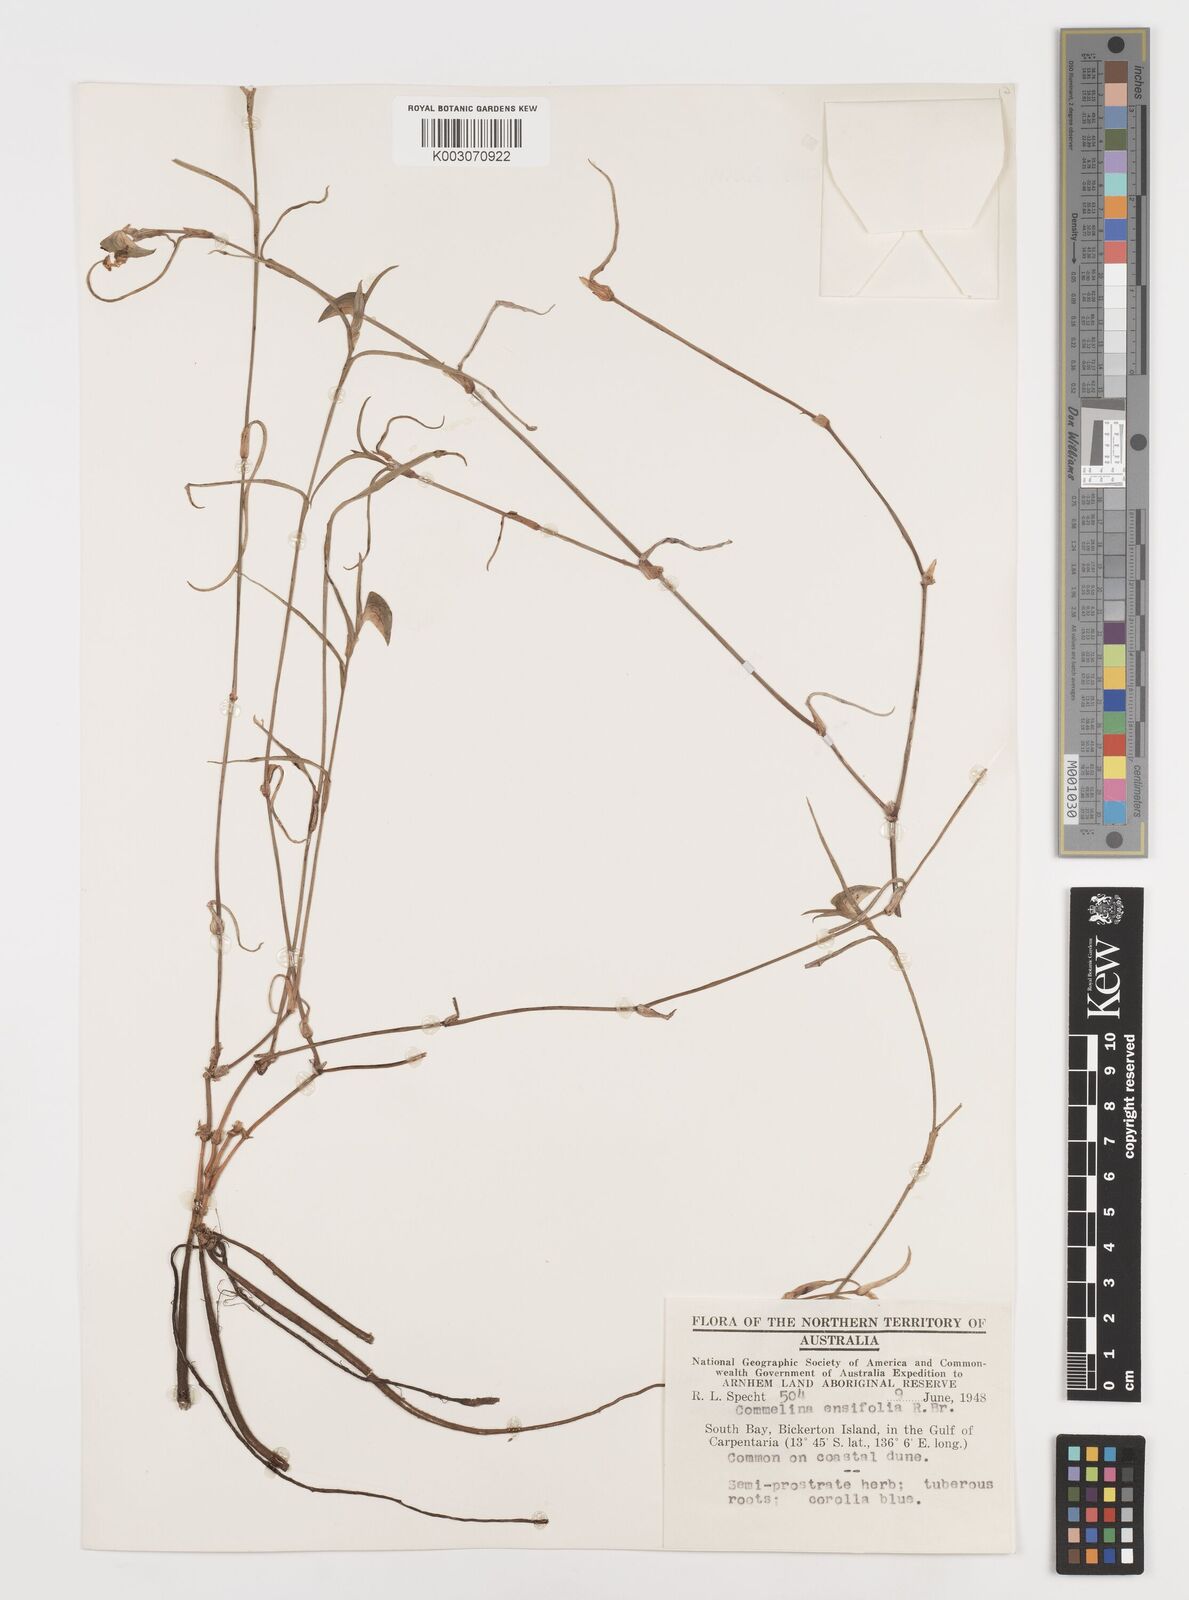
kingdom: Plantae
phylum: Tracheophyta
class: Liliopsida
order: Commelinales
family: Commelinaceae
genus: Commelina
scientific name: Commelina ensifolia
